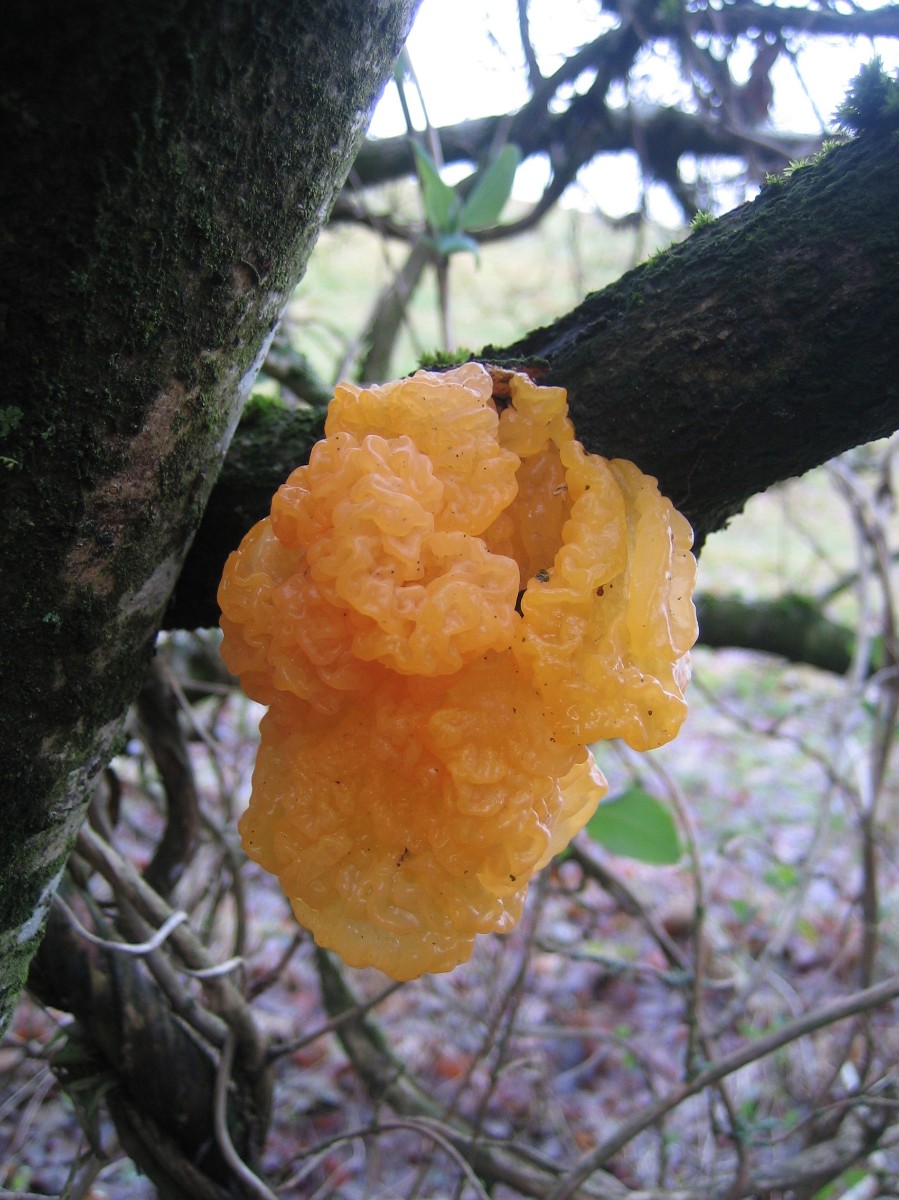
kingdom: Fungi
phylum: Basidiomycota
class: Tremellomycetes
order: Tremellales
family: Tremellaceae
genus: Tremella
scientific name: Tremella mesenterica
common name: gul bævresvamp
